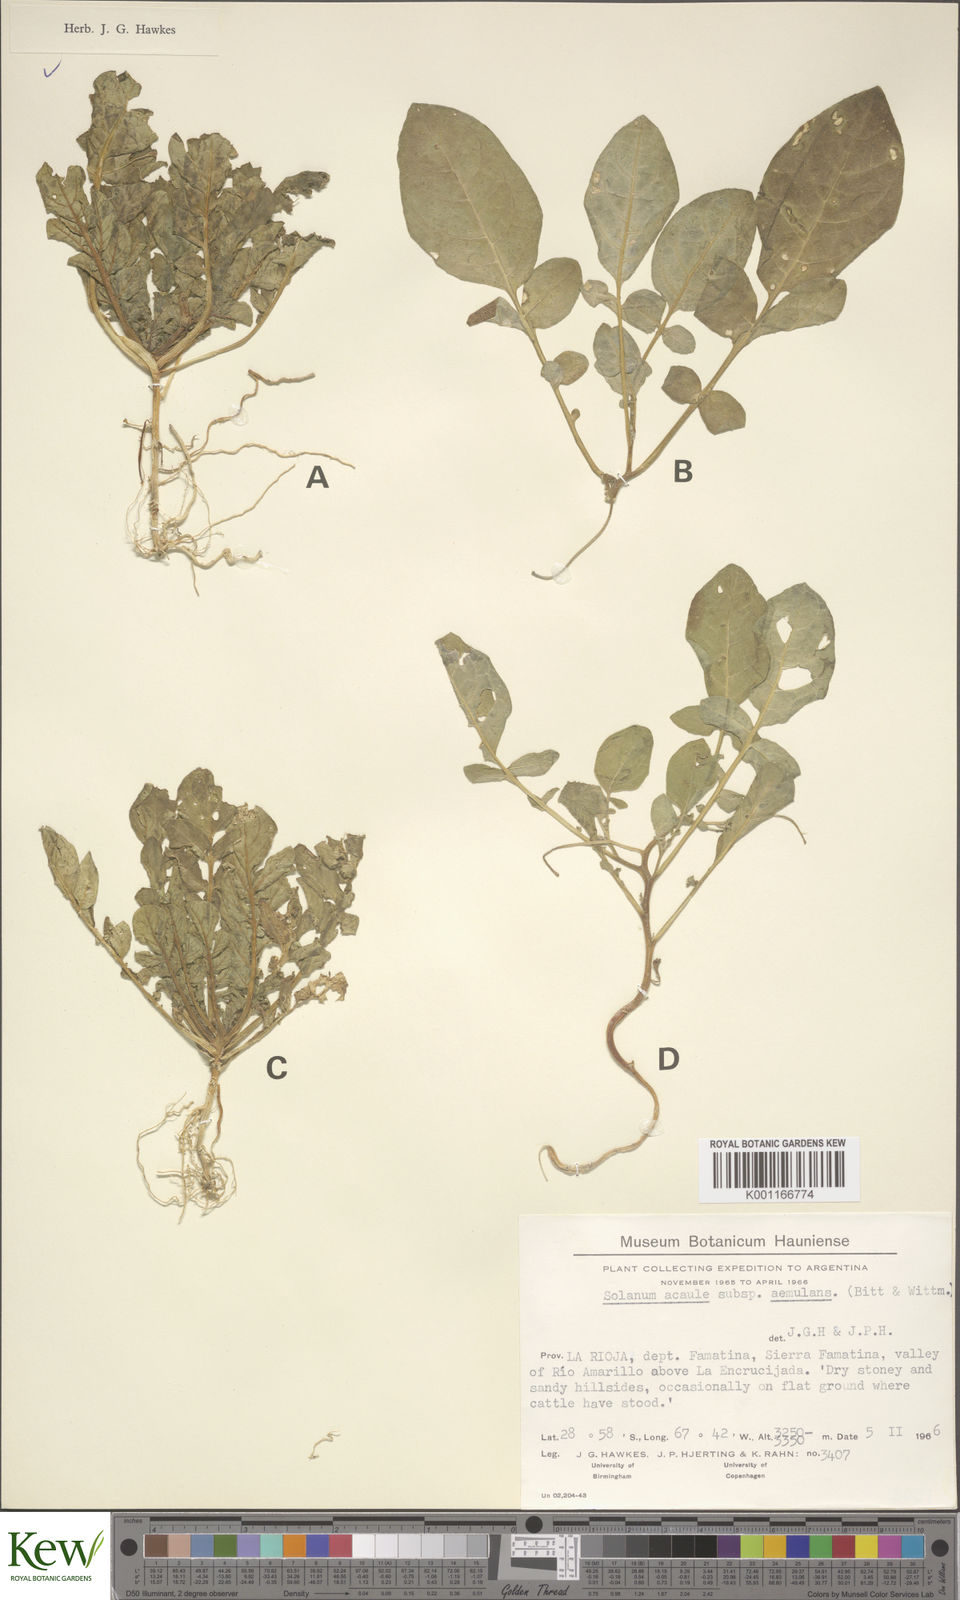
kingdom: Plantae
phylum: Tracheophyta
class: Magnoliopsida
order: Solanales
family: Solanaceae
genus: Solanum
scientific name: Solanum aemulans
